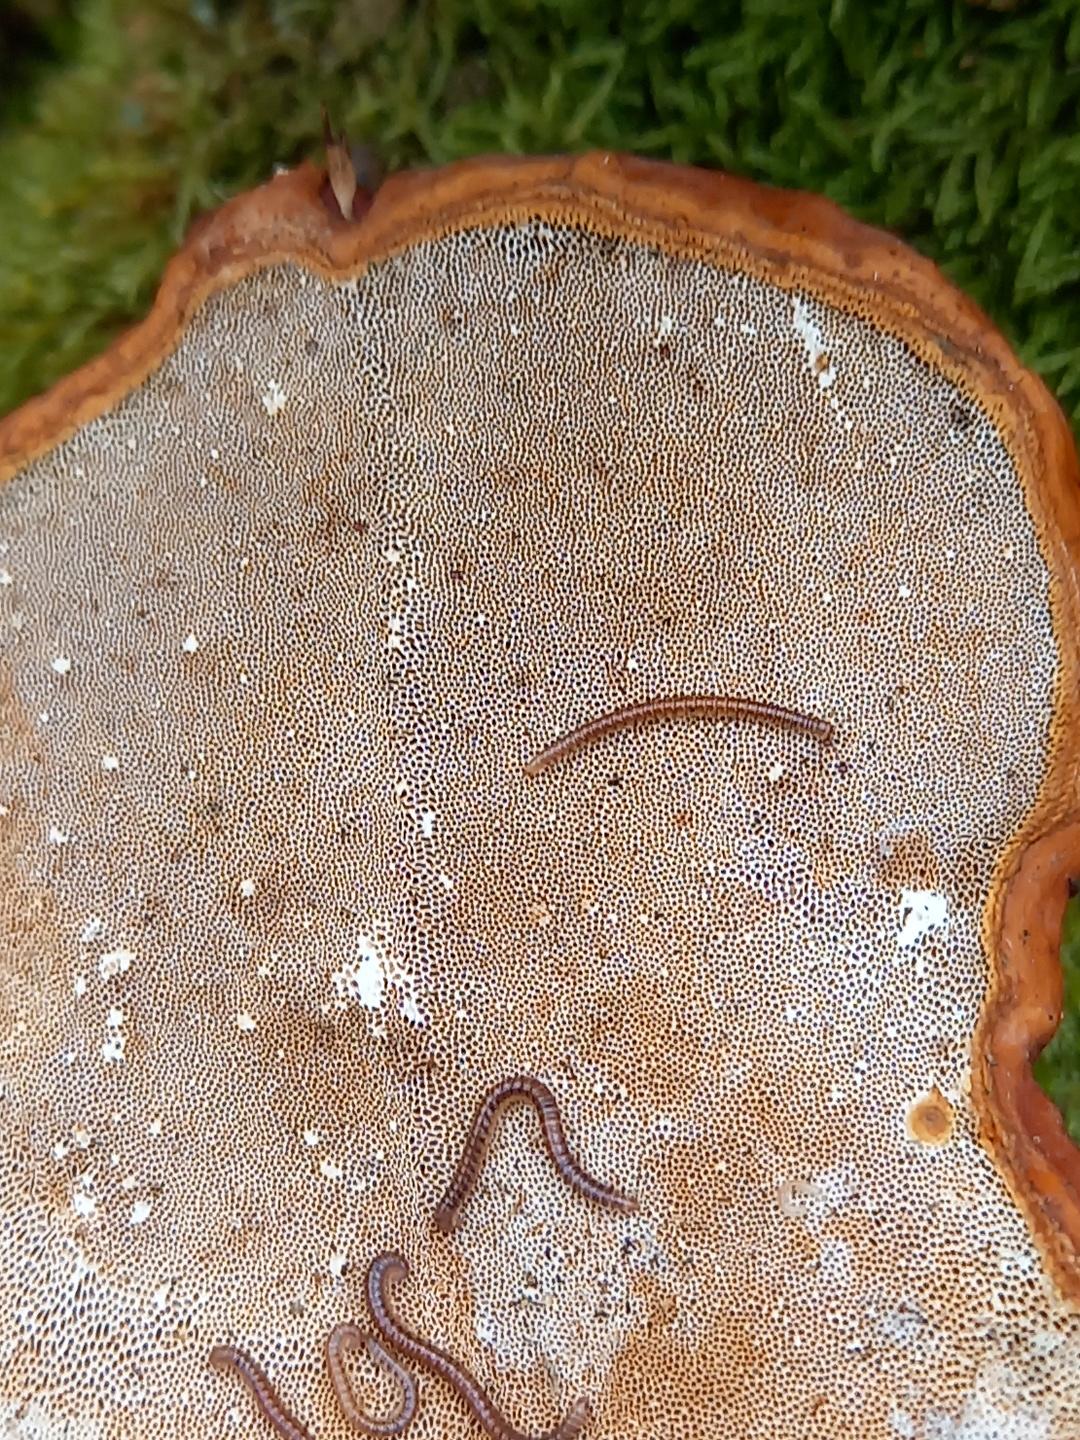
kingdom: Fungi
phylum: Basidiomycota
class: Agaricomycetes
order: Polyporales
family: Polyporaceae
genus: Ganoderma
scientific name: Ganoderma lucidum
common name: skinnende lakporesvamp
